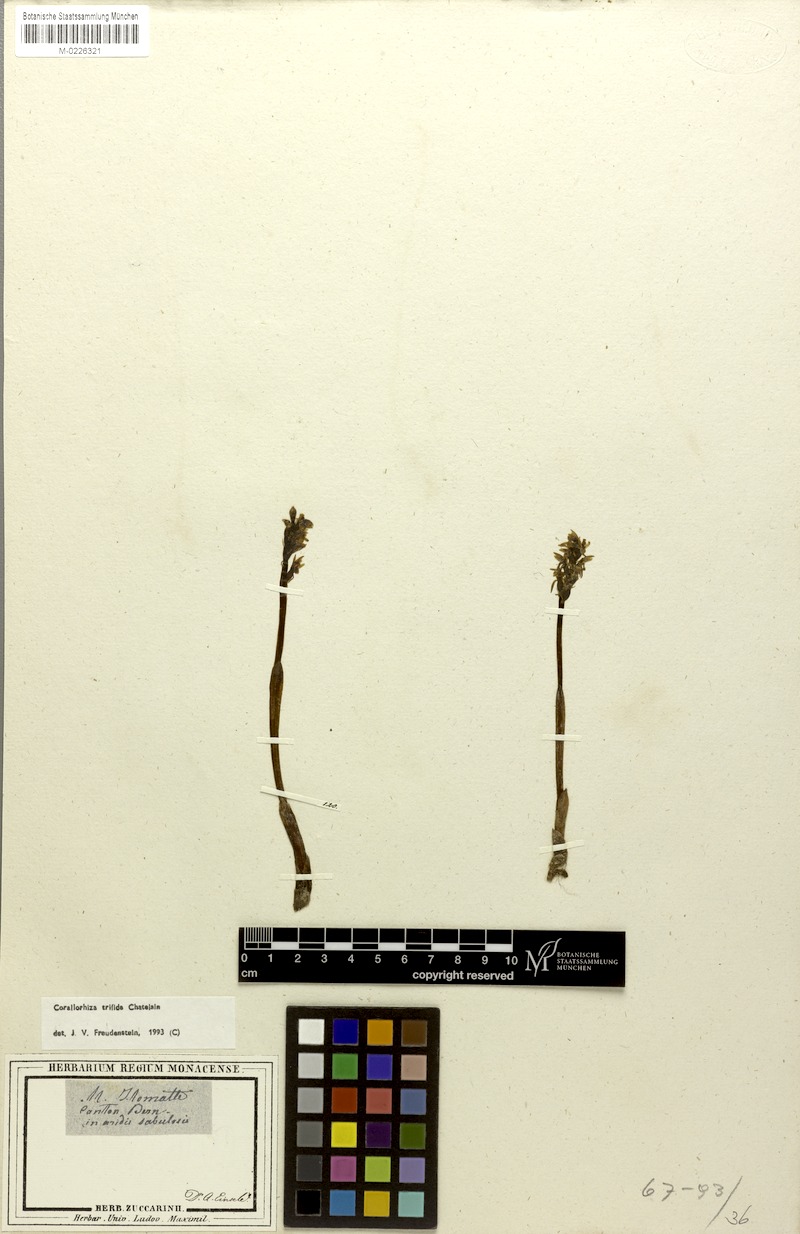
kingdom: Plantae
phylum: Tracheophyta
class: Liliopsida
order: Asparagales
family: Orchidaceae
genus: Corallorhiza
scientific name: Corallorhiza trifida
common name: Yellow coralroot
